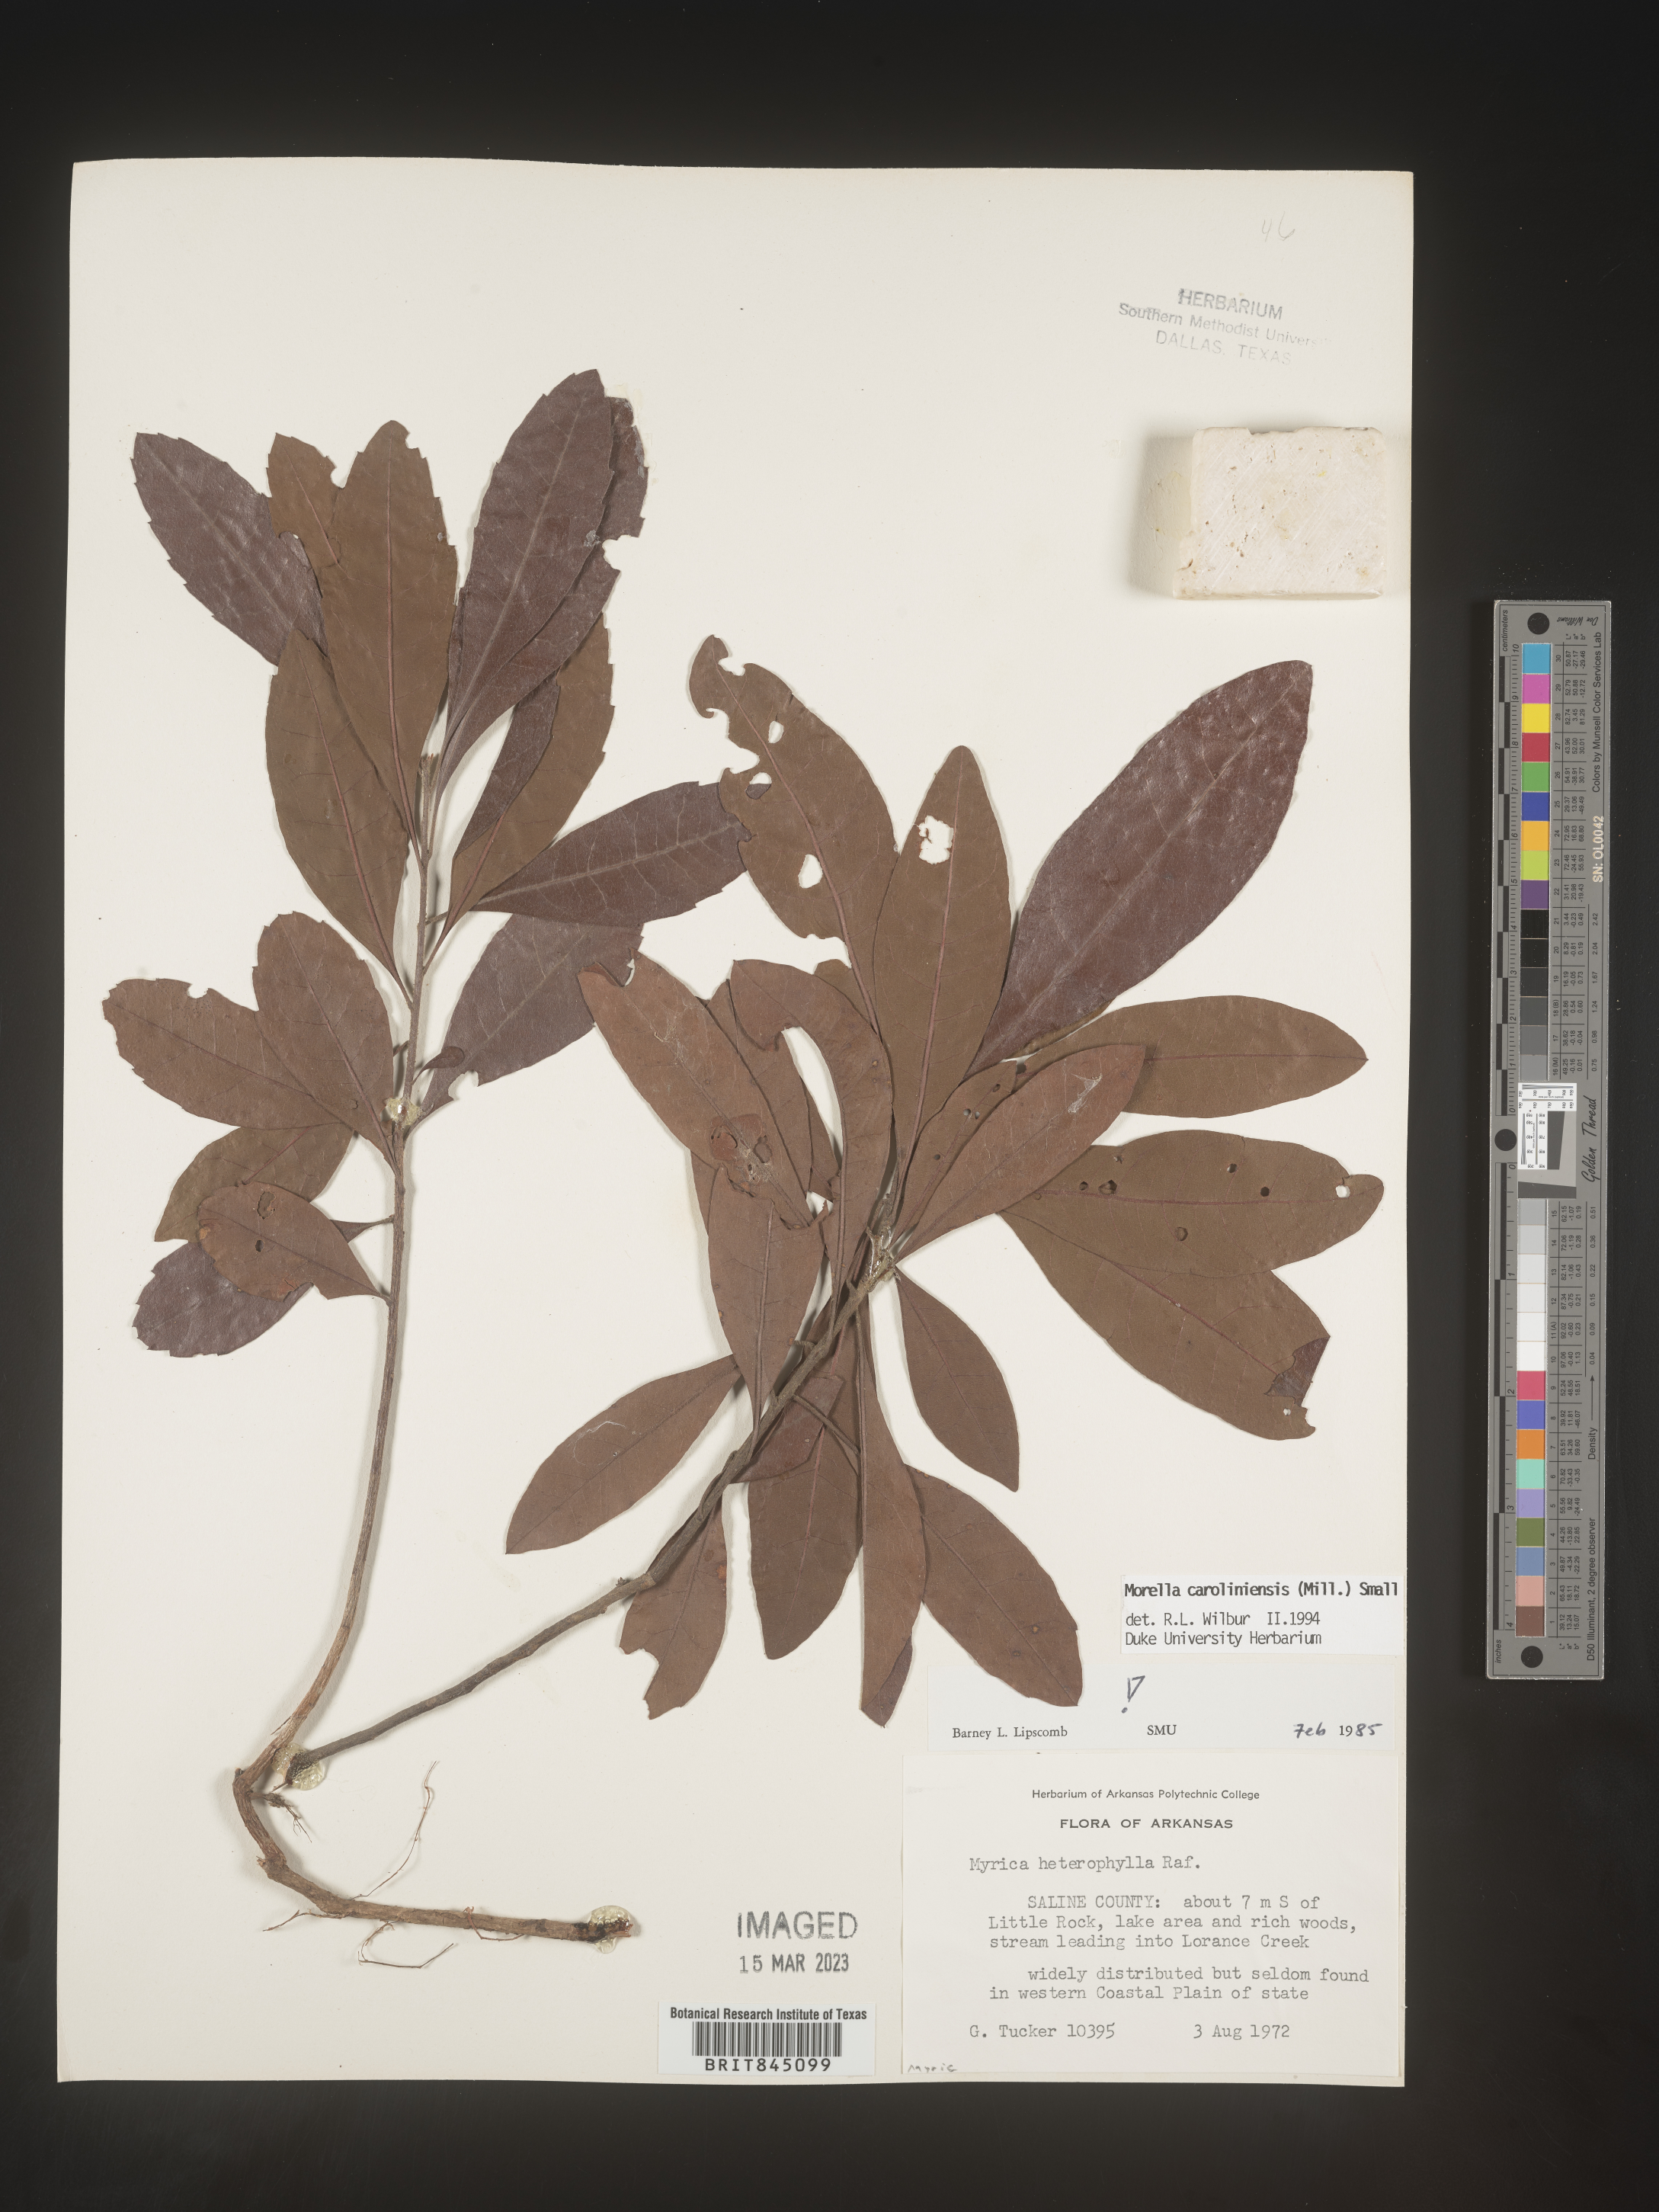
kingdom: Plantae
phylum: Tracheophyta
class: Magnoliopsida
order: Fagales
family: Myricaceae
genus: Morella
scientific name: Morella caroliniensis
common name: Evergreen bayberry
